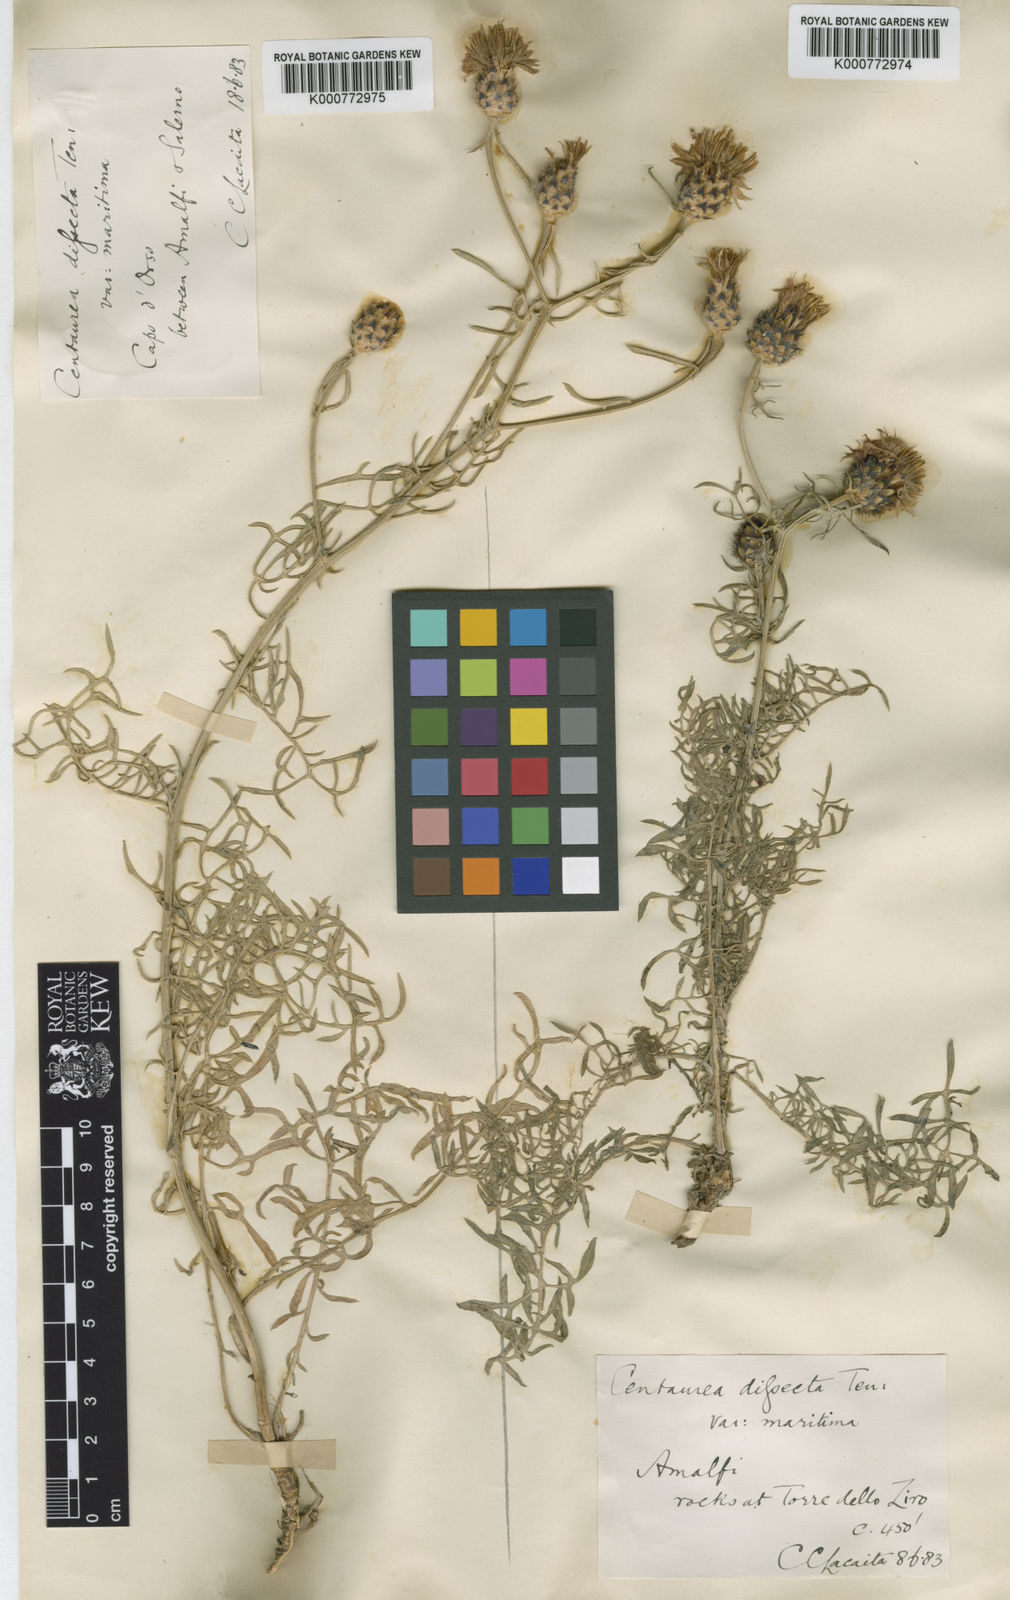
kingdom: Plantae
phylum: Tracheophyta
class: Magnoliopsida
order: Asterales
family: Asteraceae
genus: Centaurea
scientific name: Centaurea parlatoris
